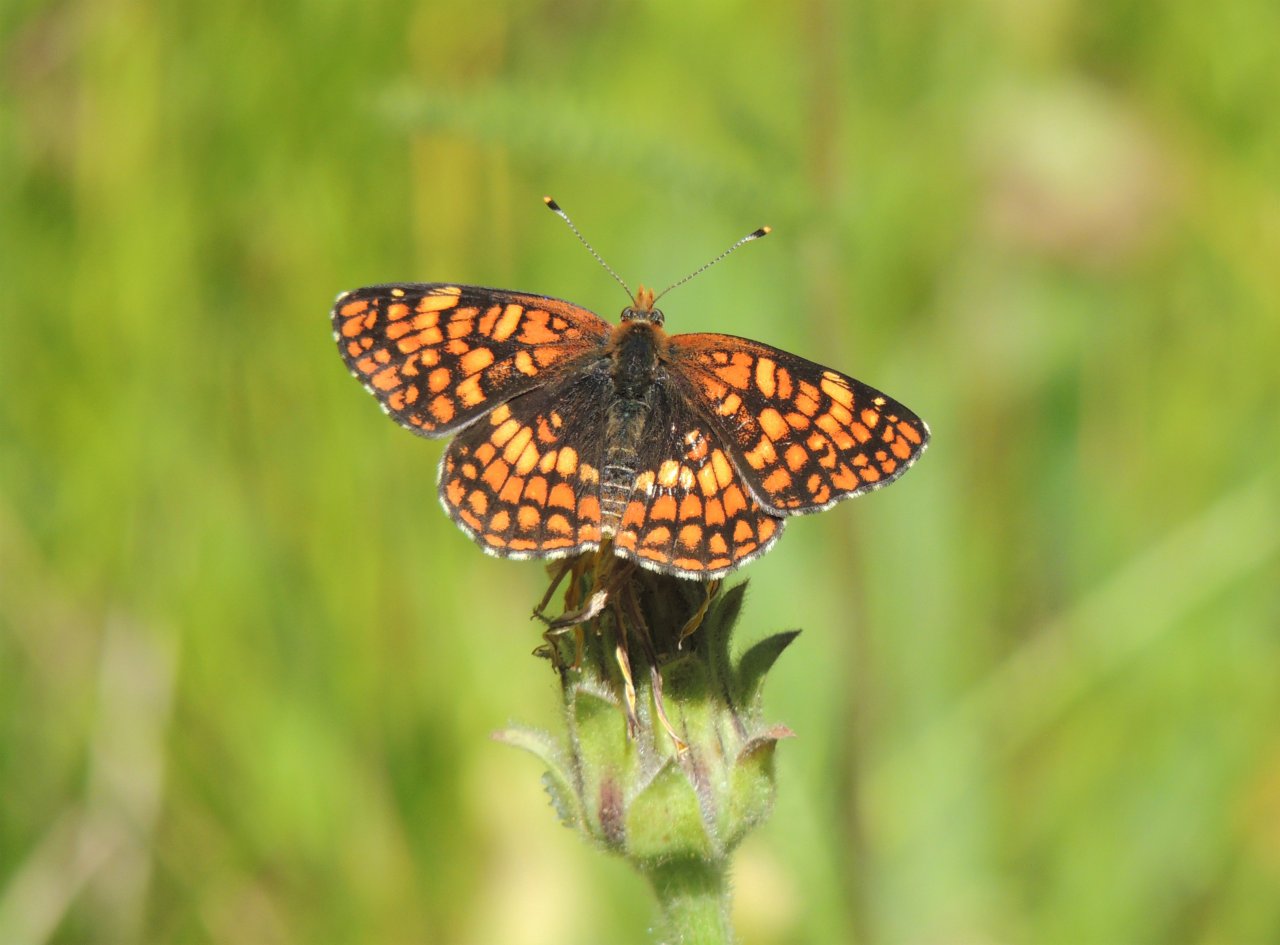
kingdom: Animalia
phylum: Arthropoda
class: Insecta
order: Lepidoptera
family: Nymphalidae
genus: Chlosyne
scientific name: Chlosyne palla
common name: Northern Checkerspot
